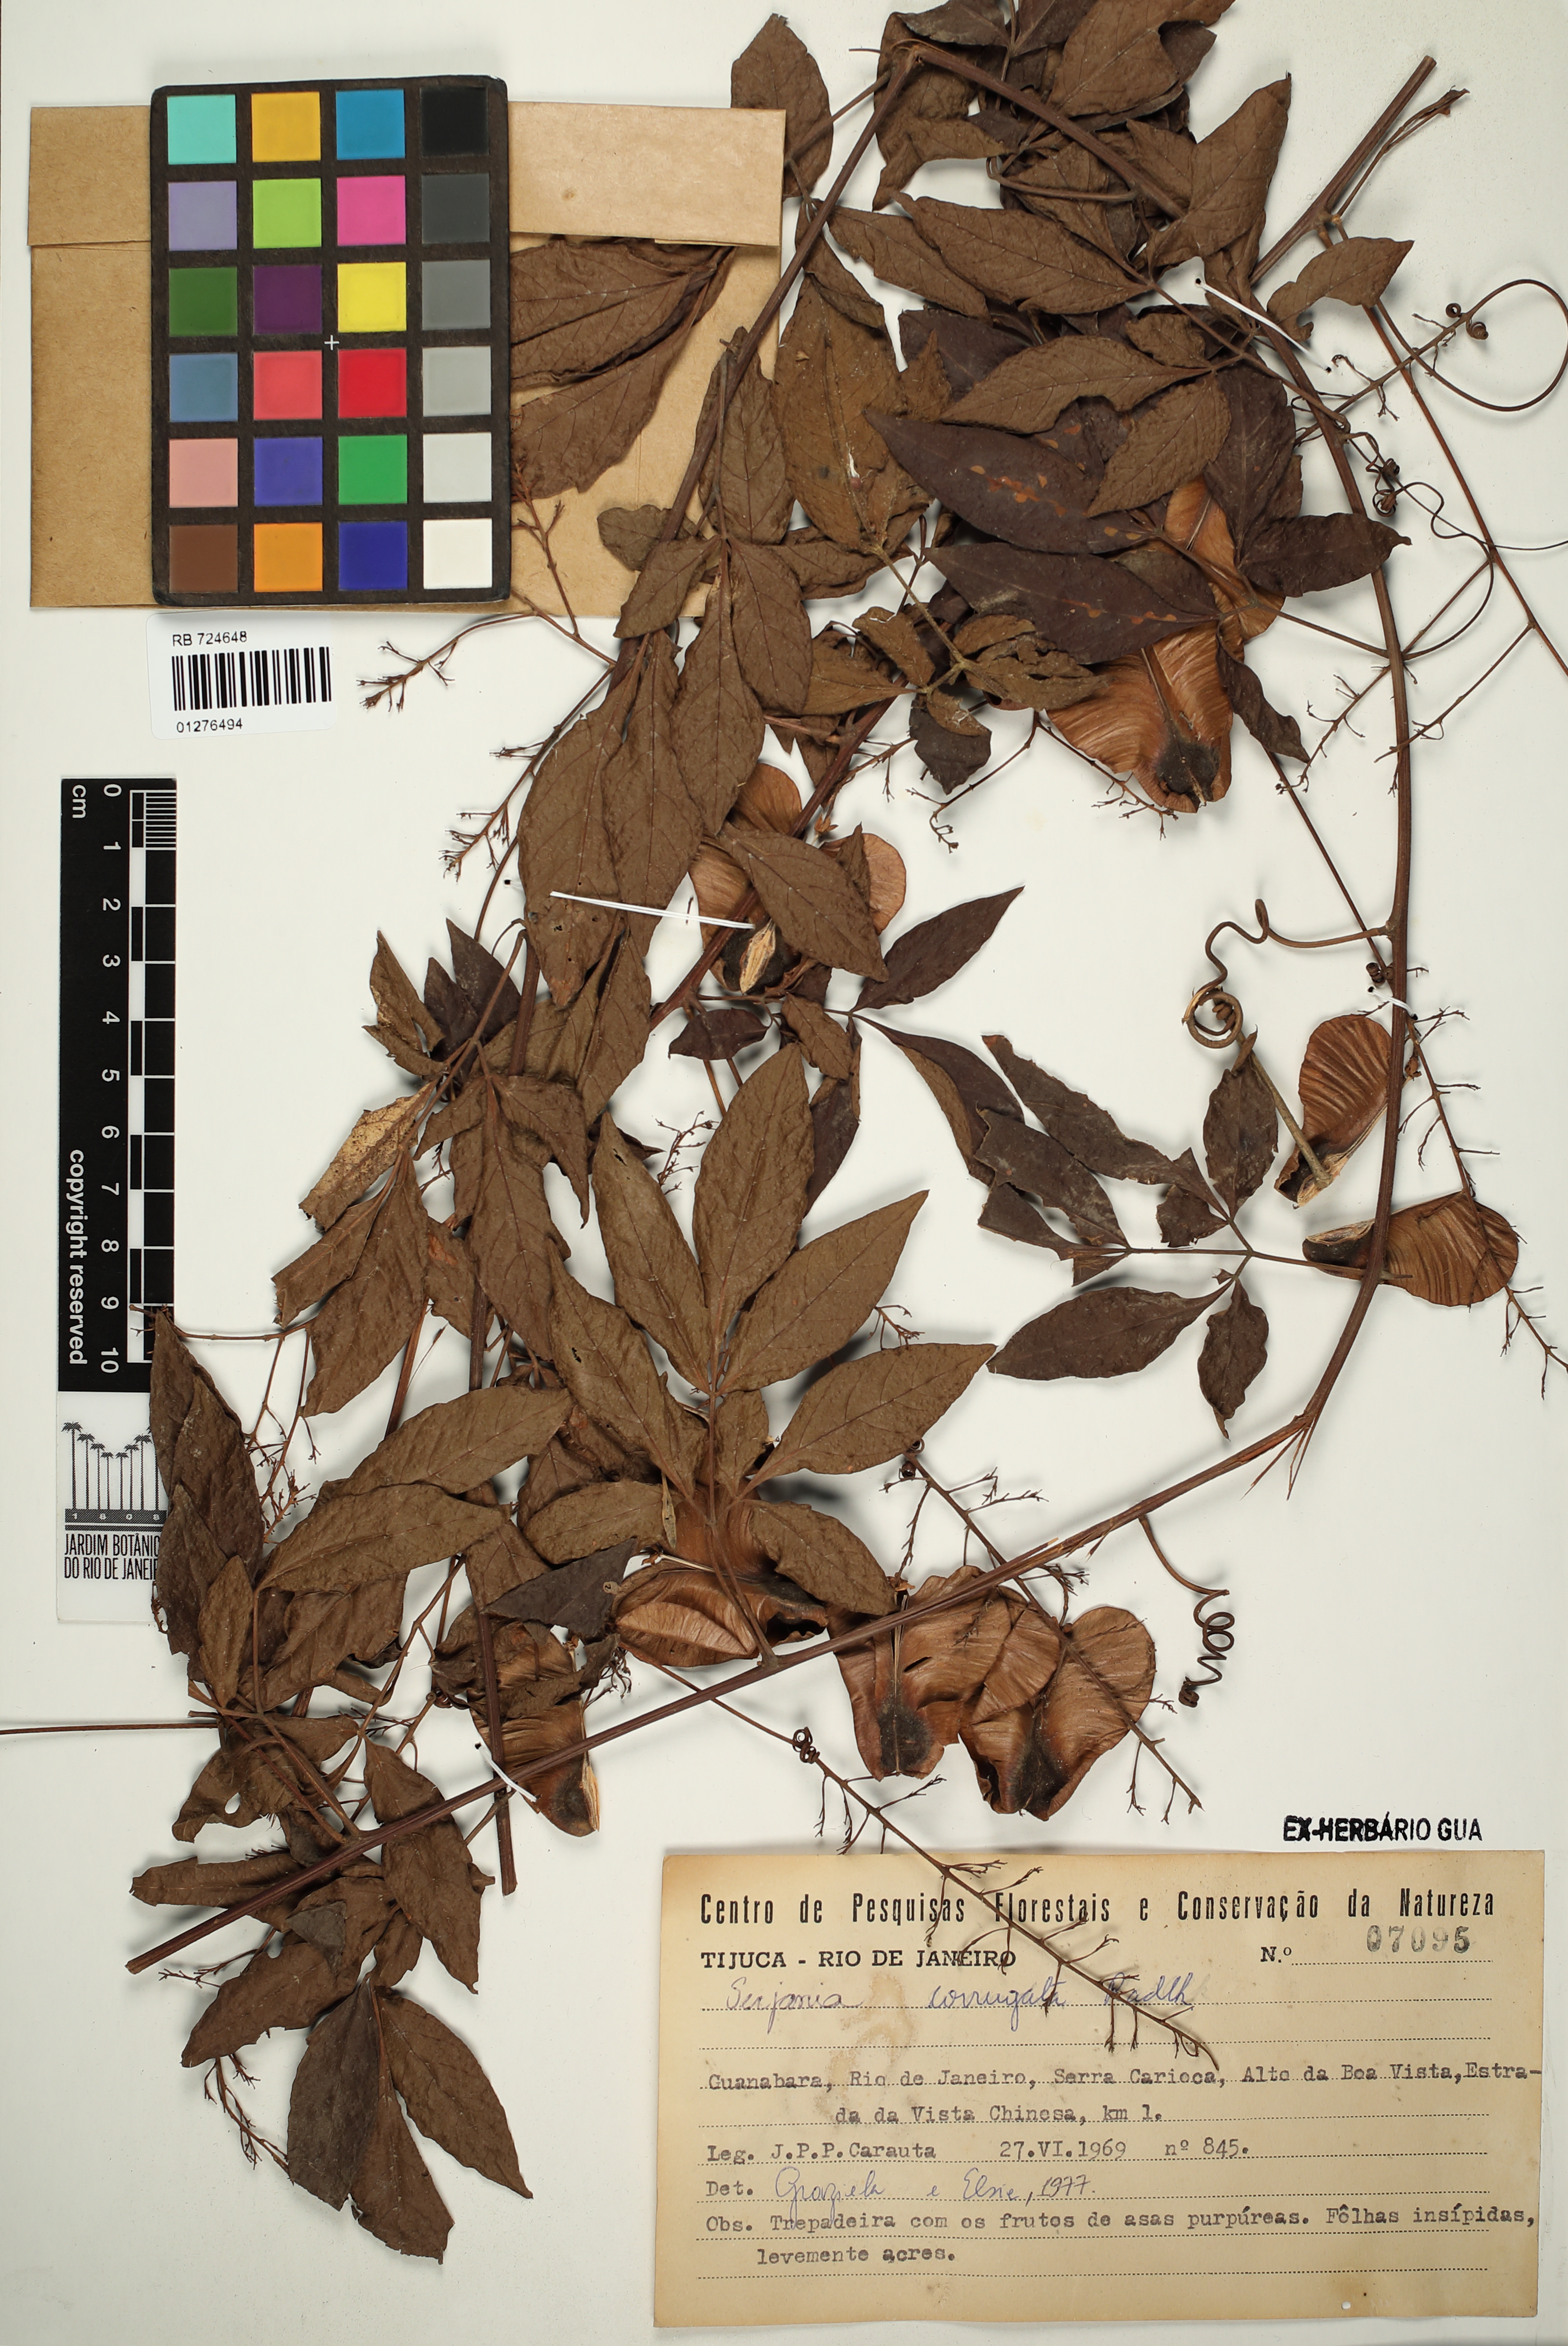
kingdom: Plantae
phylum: Tracheophyta
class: Magnoliopsida
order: Sapindales
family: Sapindaceae
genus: Serjania
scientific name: Serjania corrugata
